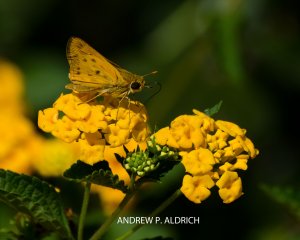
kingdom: Animalia
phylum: Arthropoda
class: Insecta
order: Lepidoptera
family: Hesperiidae
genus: Hylephila
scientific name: Hylephila phyleus
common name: Fiery Skipper
